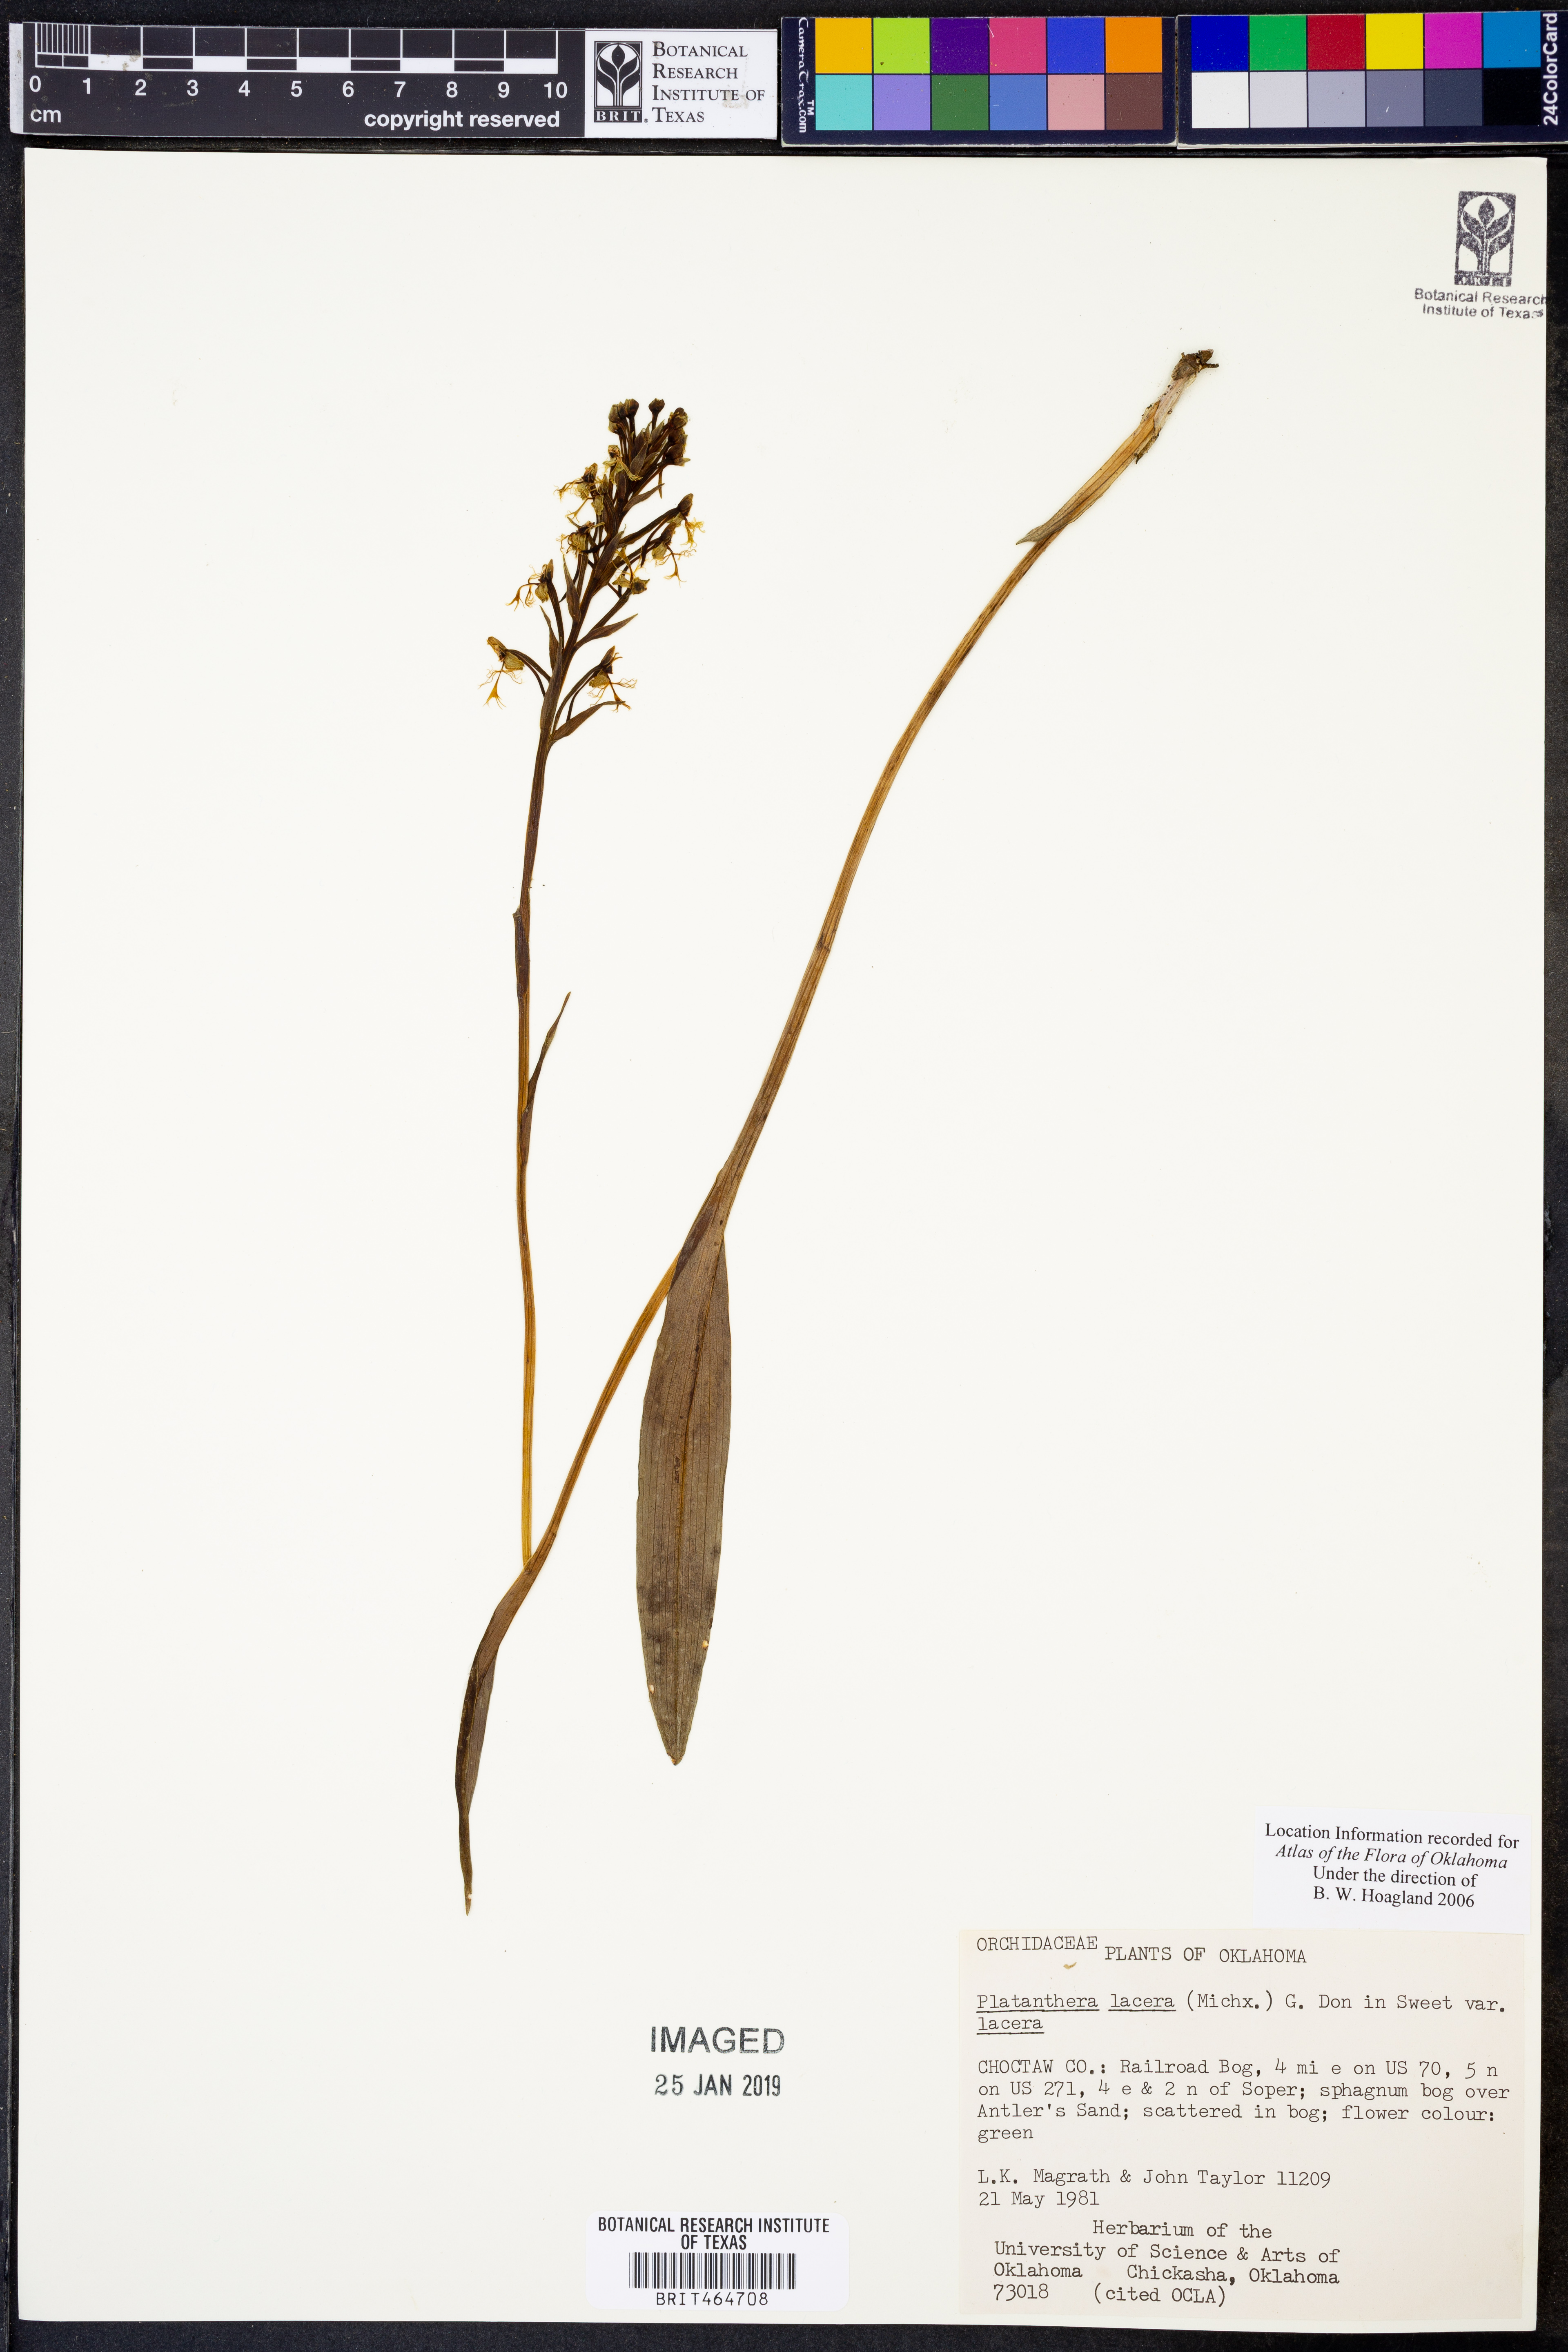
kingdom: Plantae
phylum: Tracheophyta
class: Liliopsida
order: Asparagales
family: Orchidaceae
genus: Platanthera
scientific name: Platanthera lacera
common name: Green fringed orchid
